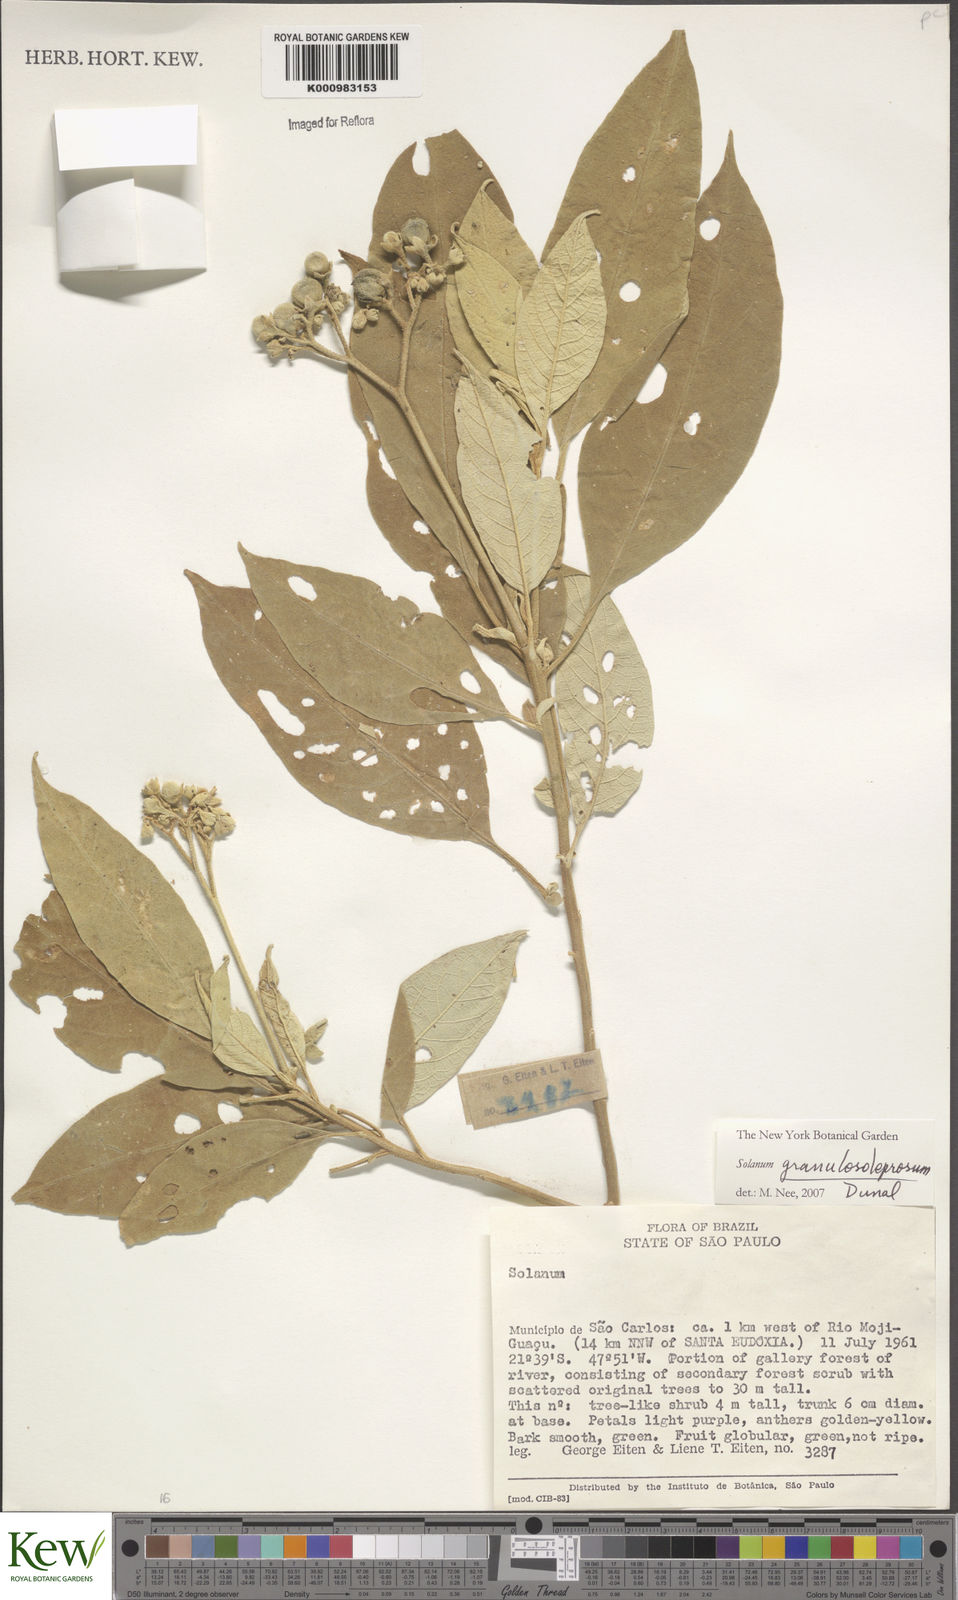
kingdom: Plantae
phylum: Tracheophyta
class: Magnoliopsida
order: Solanales
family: Solanaceae
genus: Solanum
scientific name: Solanum granulosoleprosum
